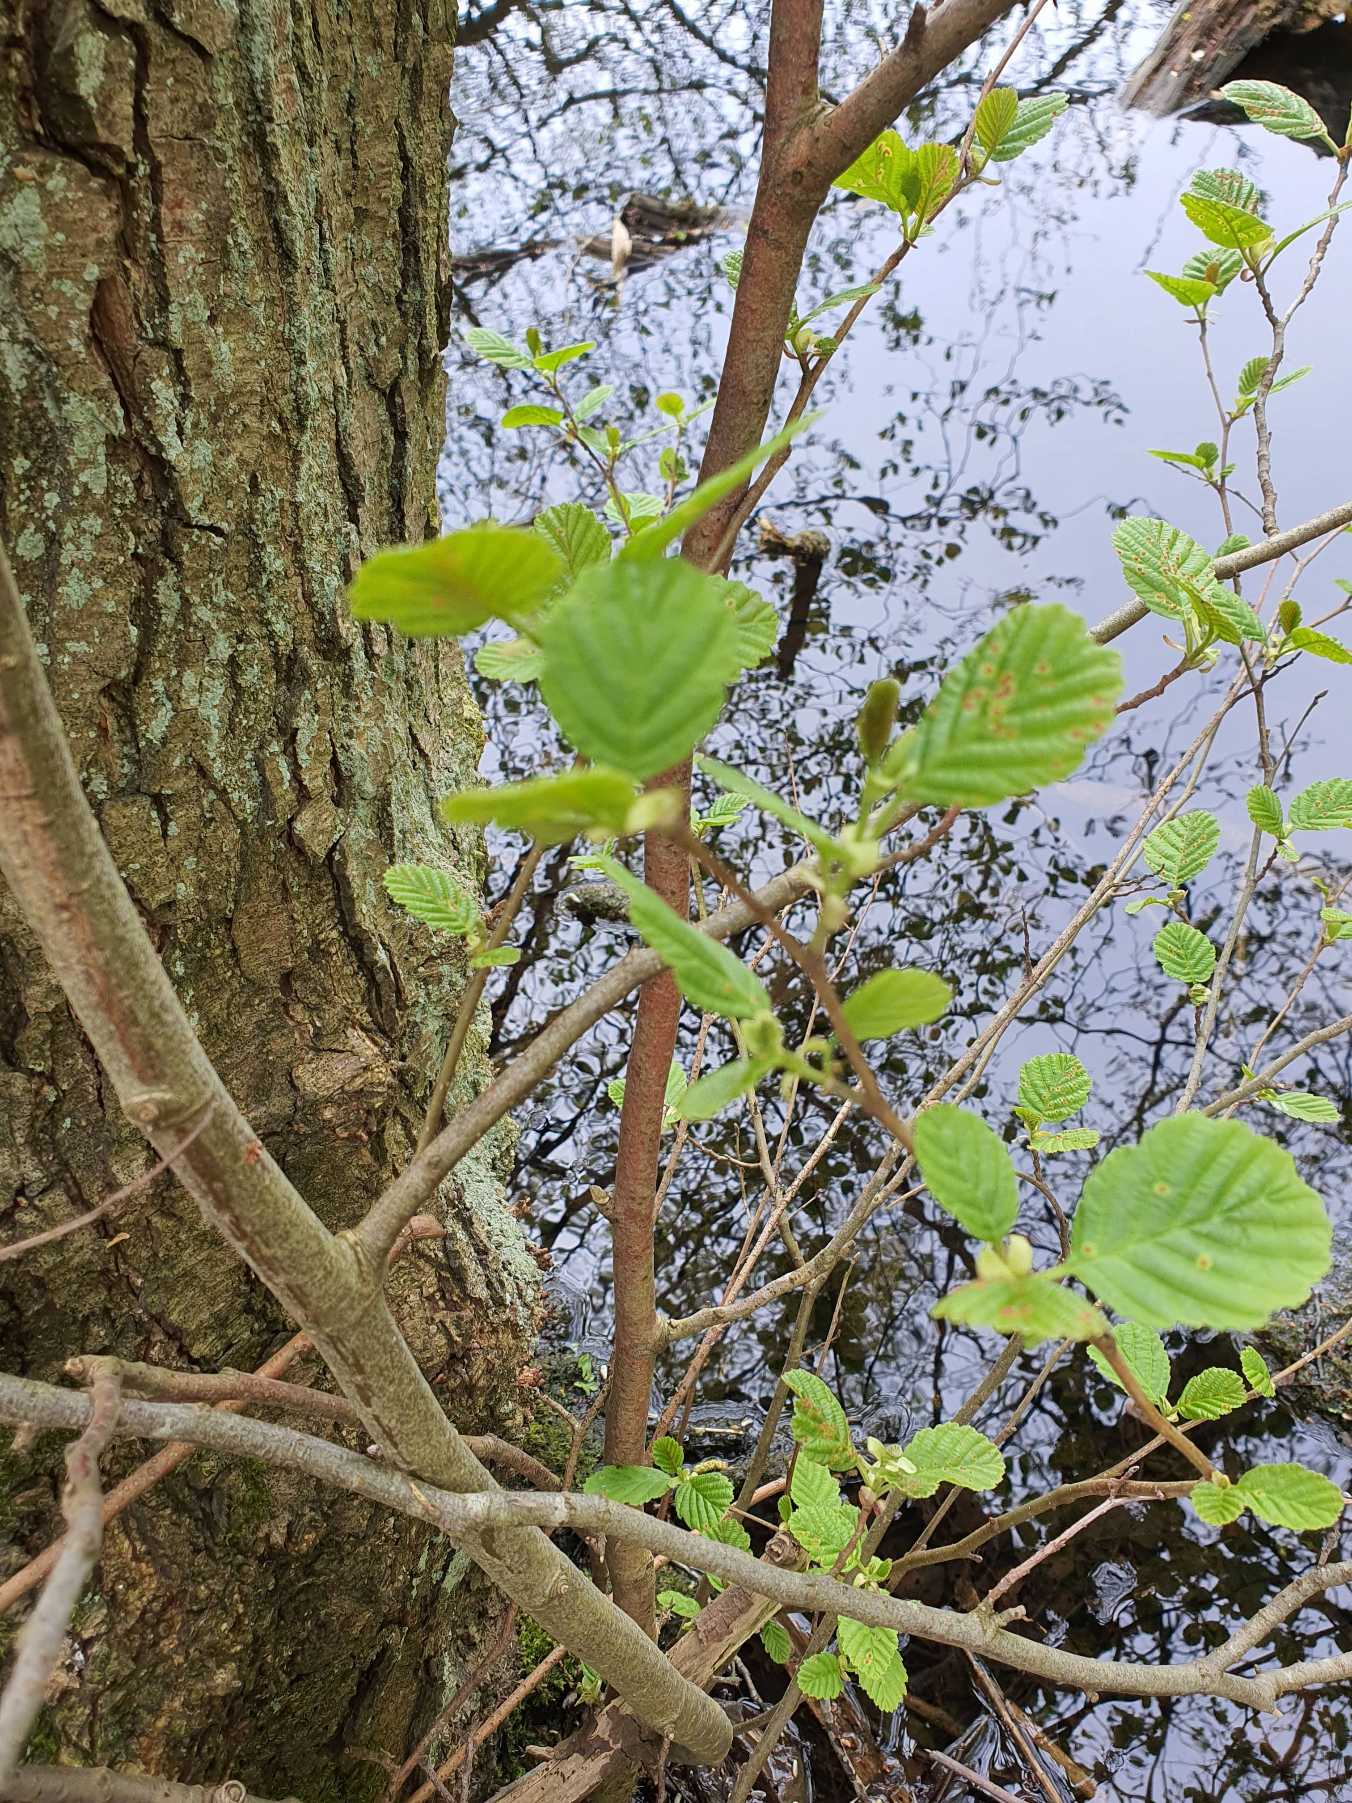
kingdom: Plantae
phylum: Tracheophyta
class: Magnoliopsida
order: Fagales
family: Betulaceae
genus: Alnus
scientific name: Alnus glutinosa
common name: Rød-el
